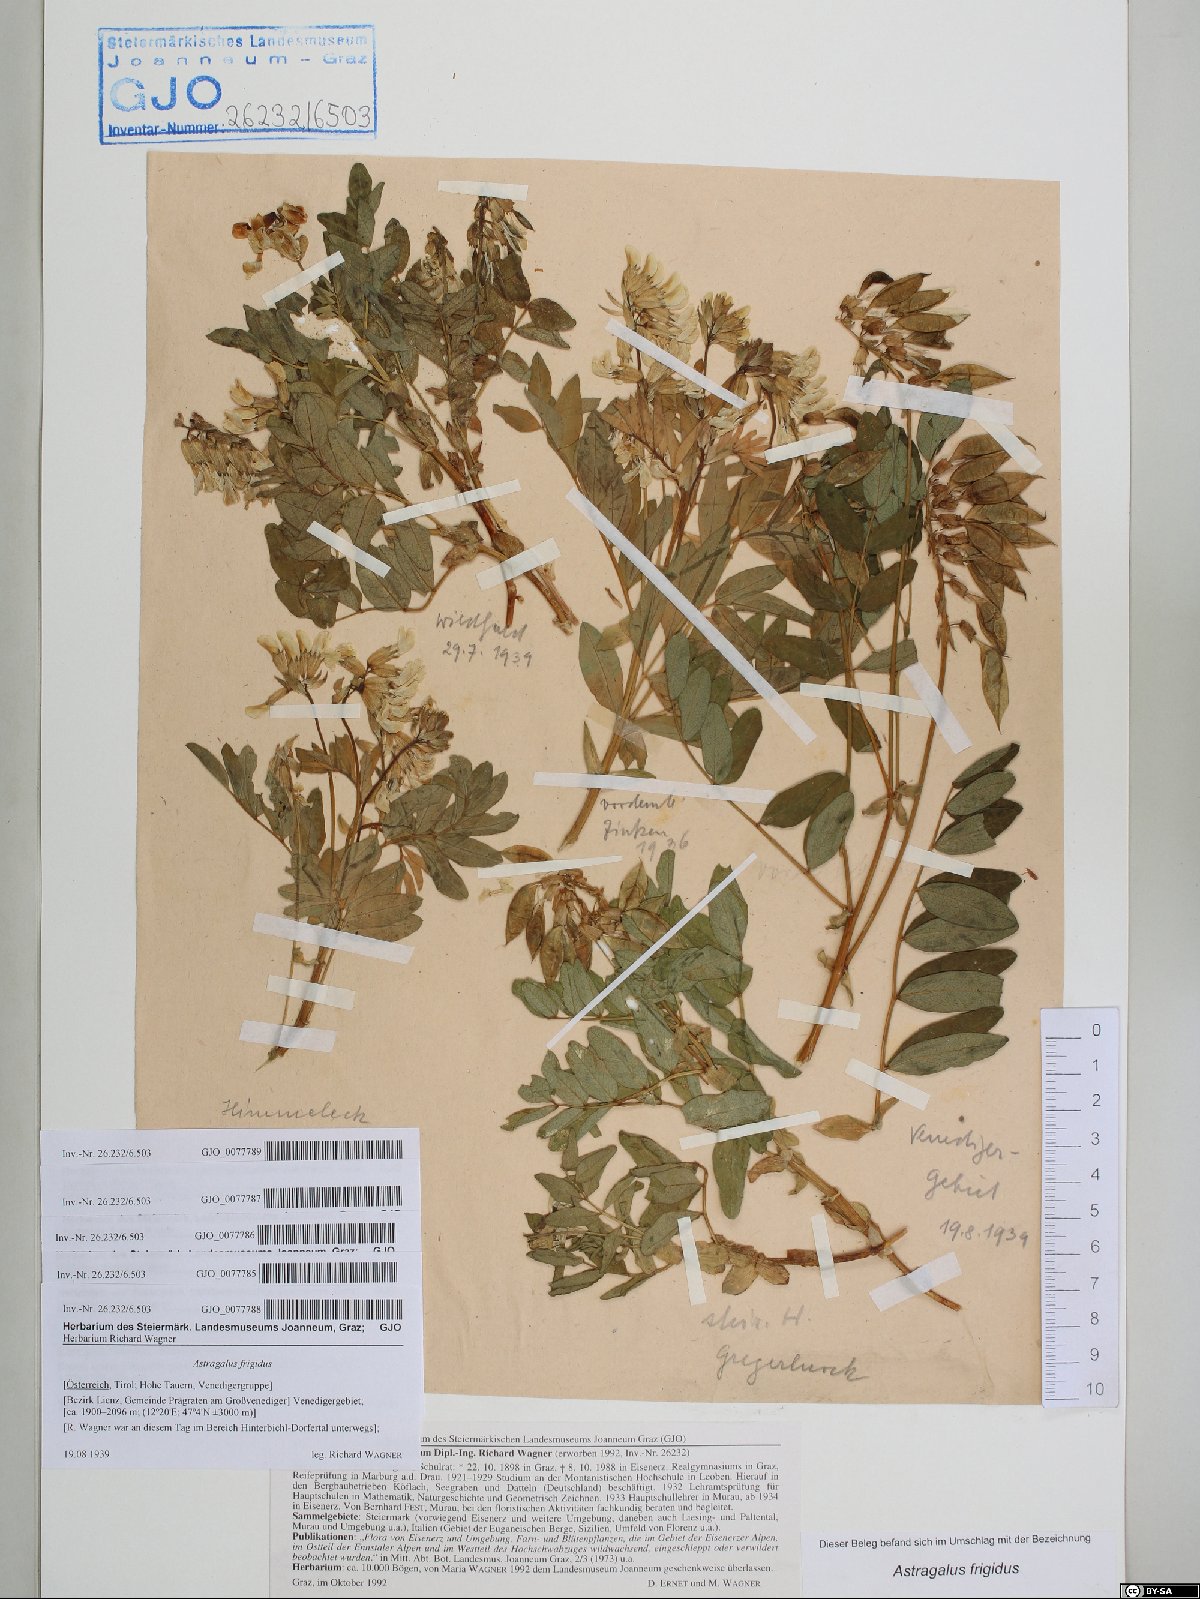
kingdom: Plantae
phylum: Tracheophyta
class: Magnoliopsida
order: Fabales
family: Fabaceae
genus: Astragalus
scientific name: Astragalus frigidus
